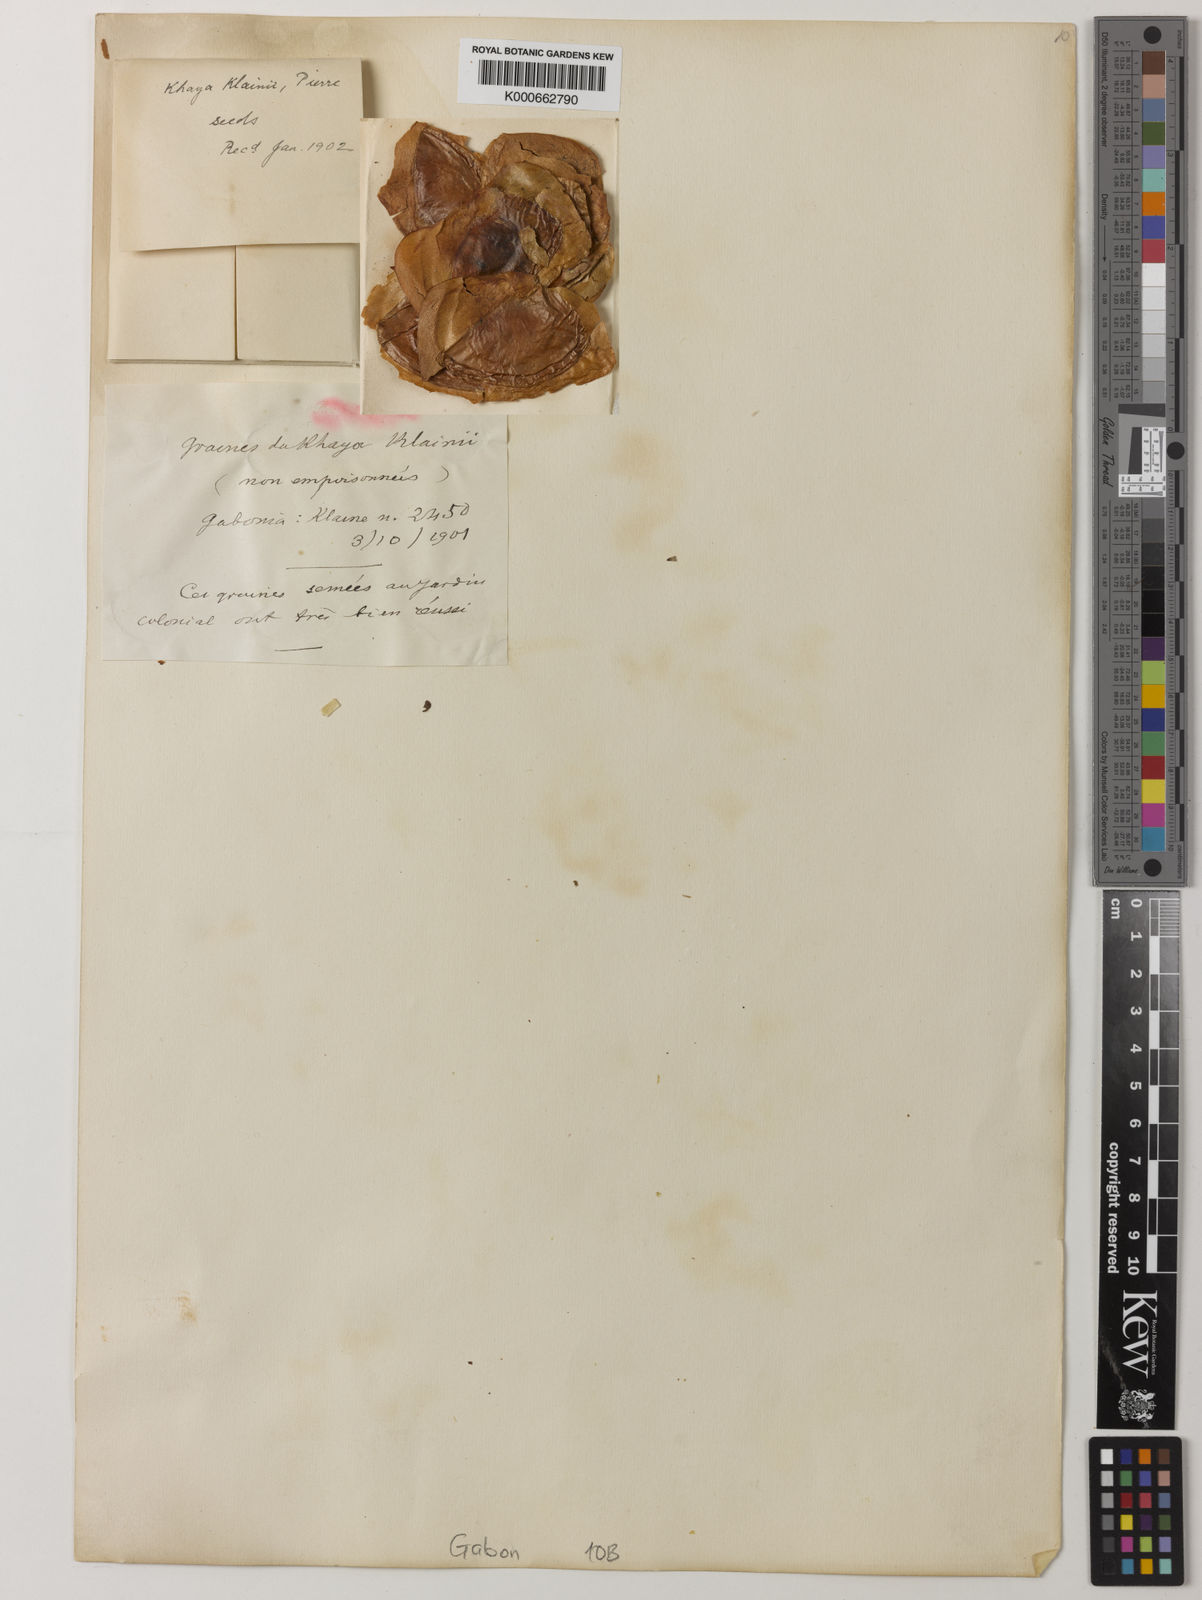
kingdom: Plantae
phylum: Tracheophyta
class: Magnoliopsida
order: Sapindales
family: Meliaceae
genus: Khaya
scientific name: Khaya ivorensis
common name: African mahogany
